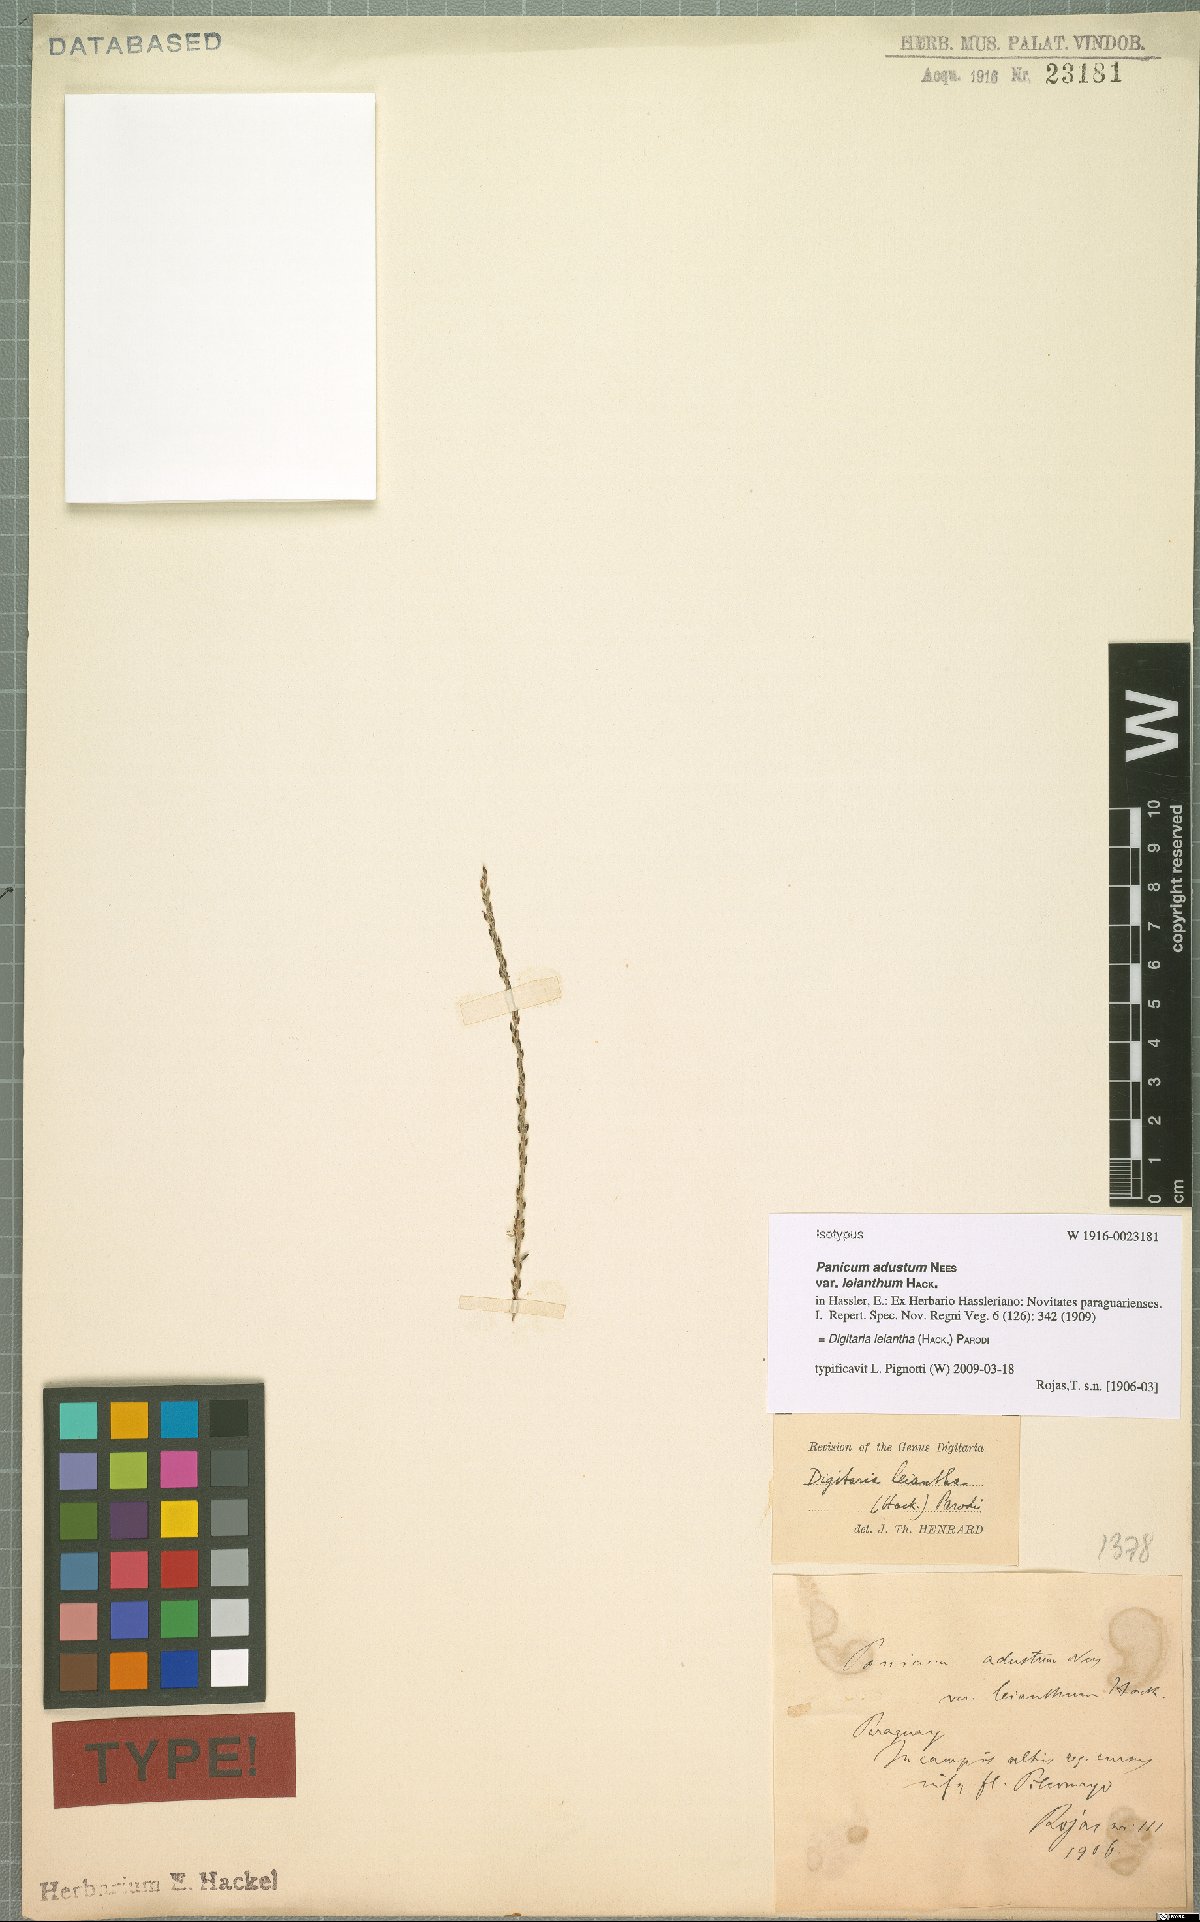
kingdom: Plantae
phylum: Tracheophyta
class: Liliopsida
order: Poales
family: Poaceae
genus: Digitaria
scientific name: Digitaria leiantha
